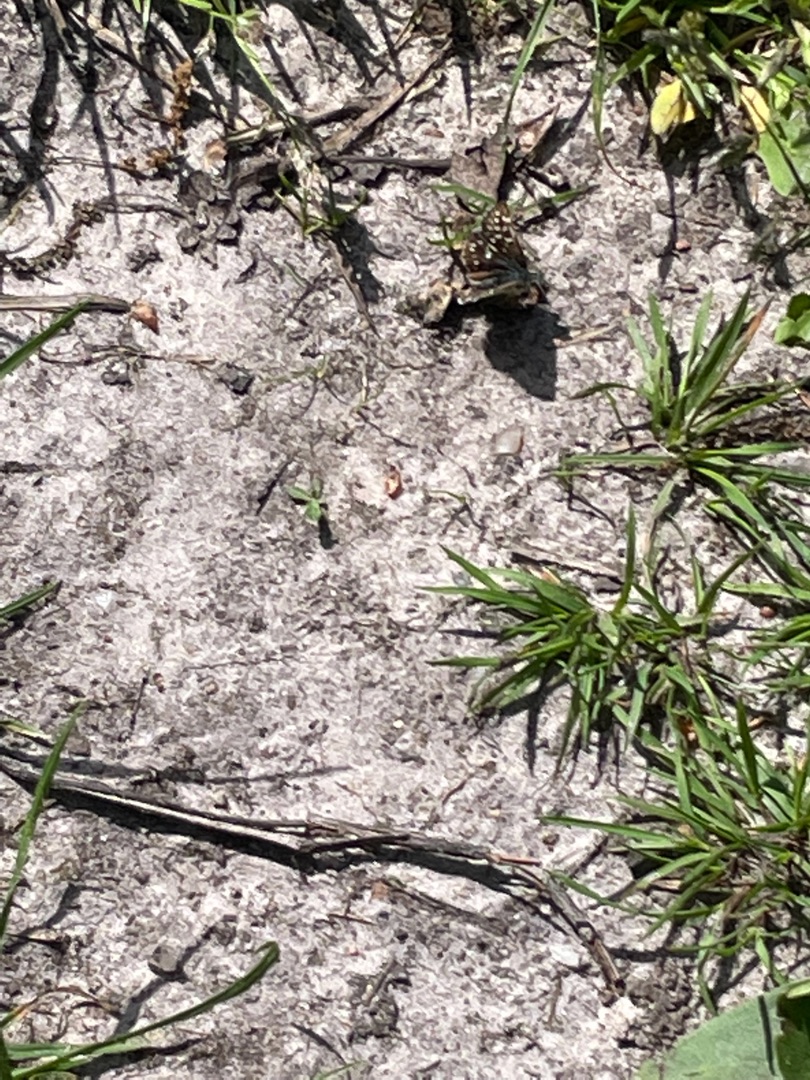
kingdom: Animalia
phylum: Arthropoda
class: Insecta
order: Lepidoptera
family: Hesperiidae
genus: Pyrgus
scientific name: Pyrgus malvae
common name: Spættet bredpande
